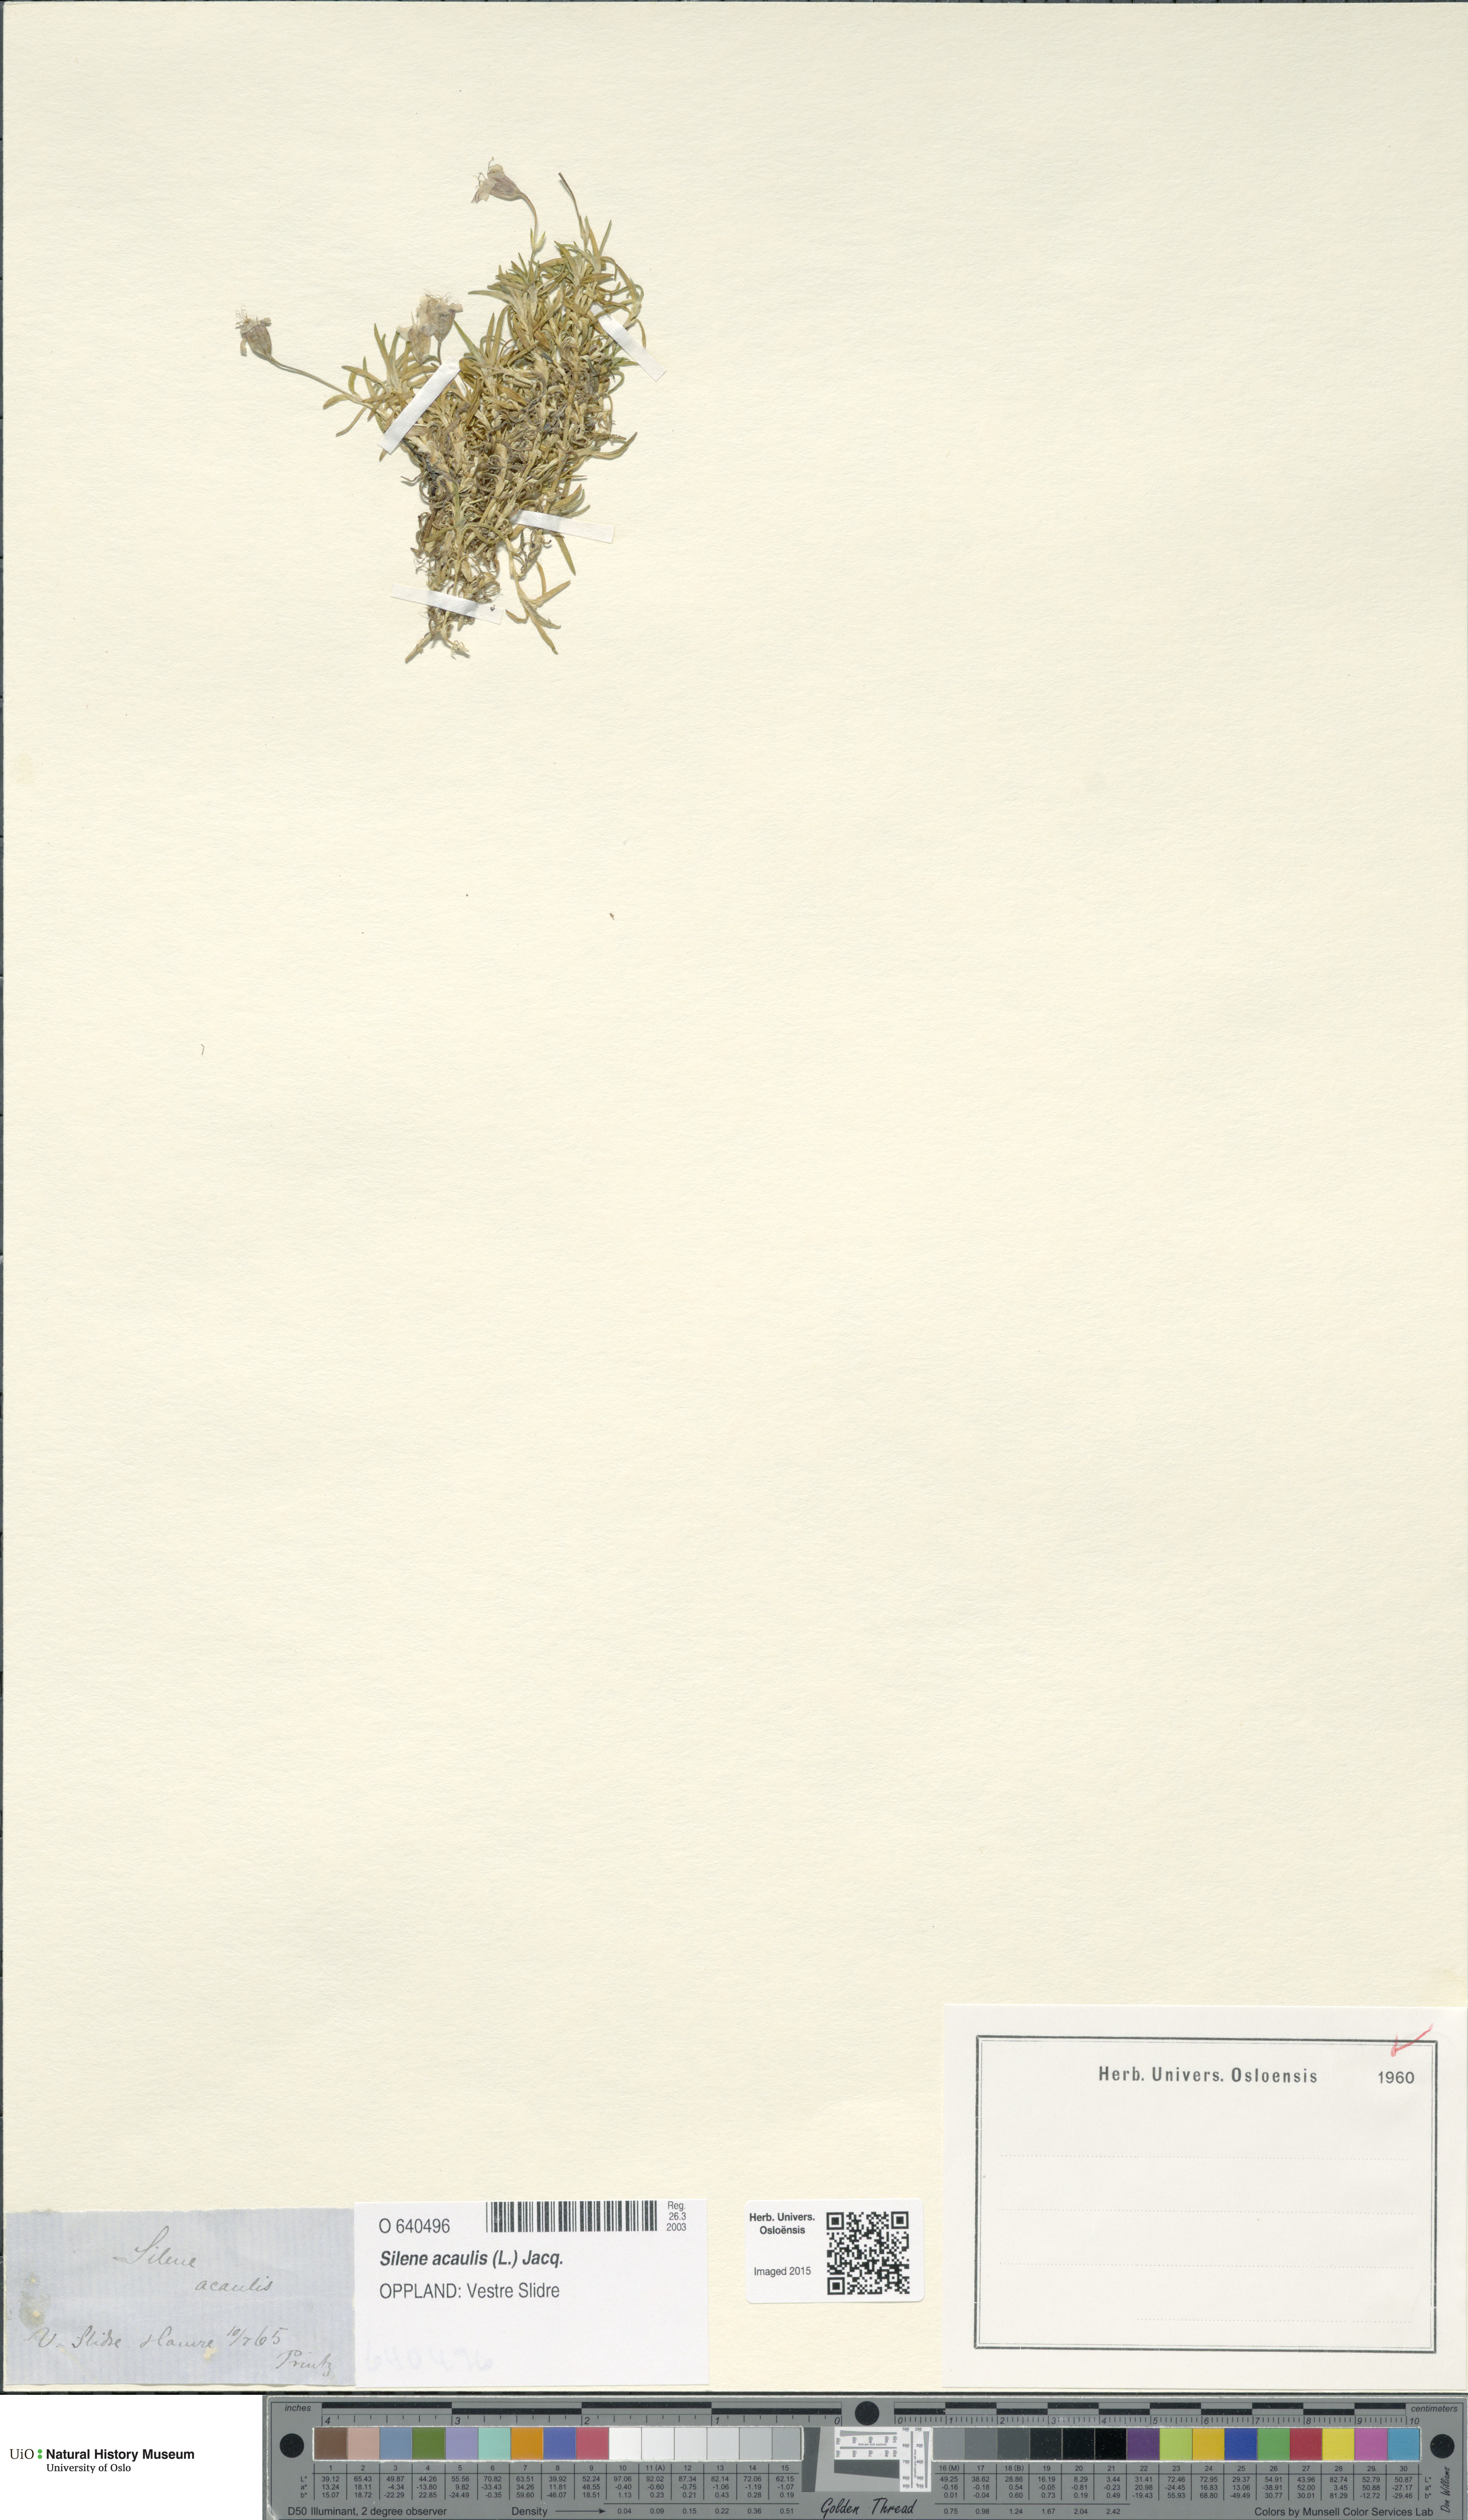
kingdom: Plantae
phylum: Tracheophyta
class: Magnoliopsida
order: Caryophyllales
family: Caryophyllaceae
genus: Silene
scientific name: Silene acaulis
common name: Moss campion
